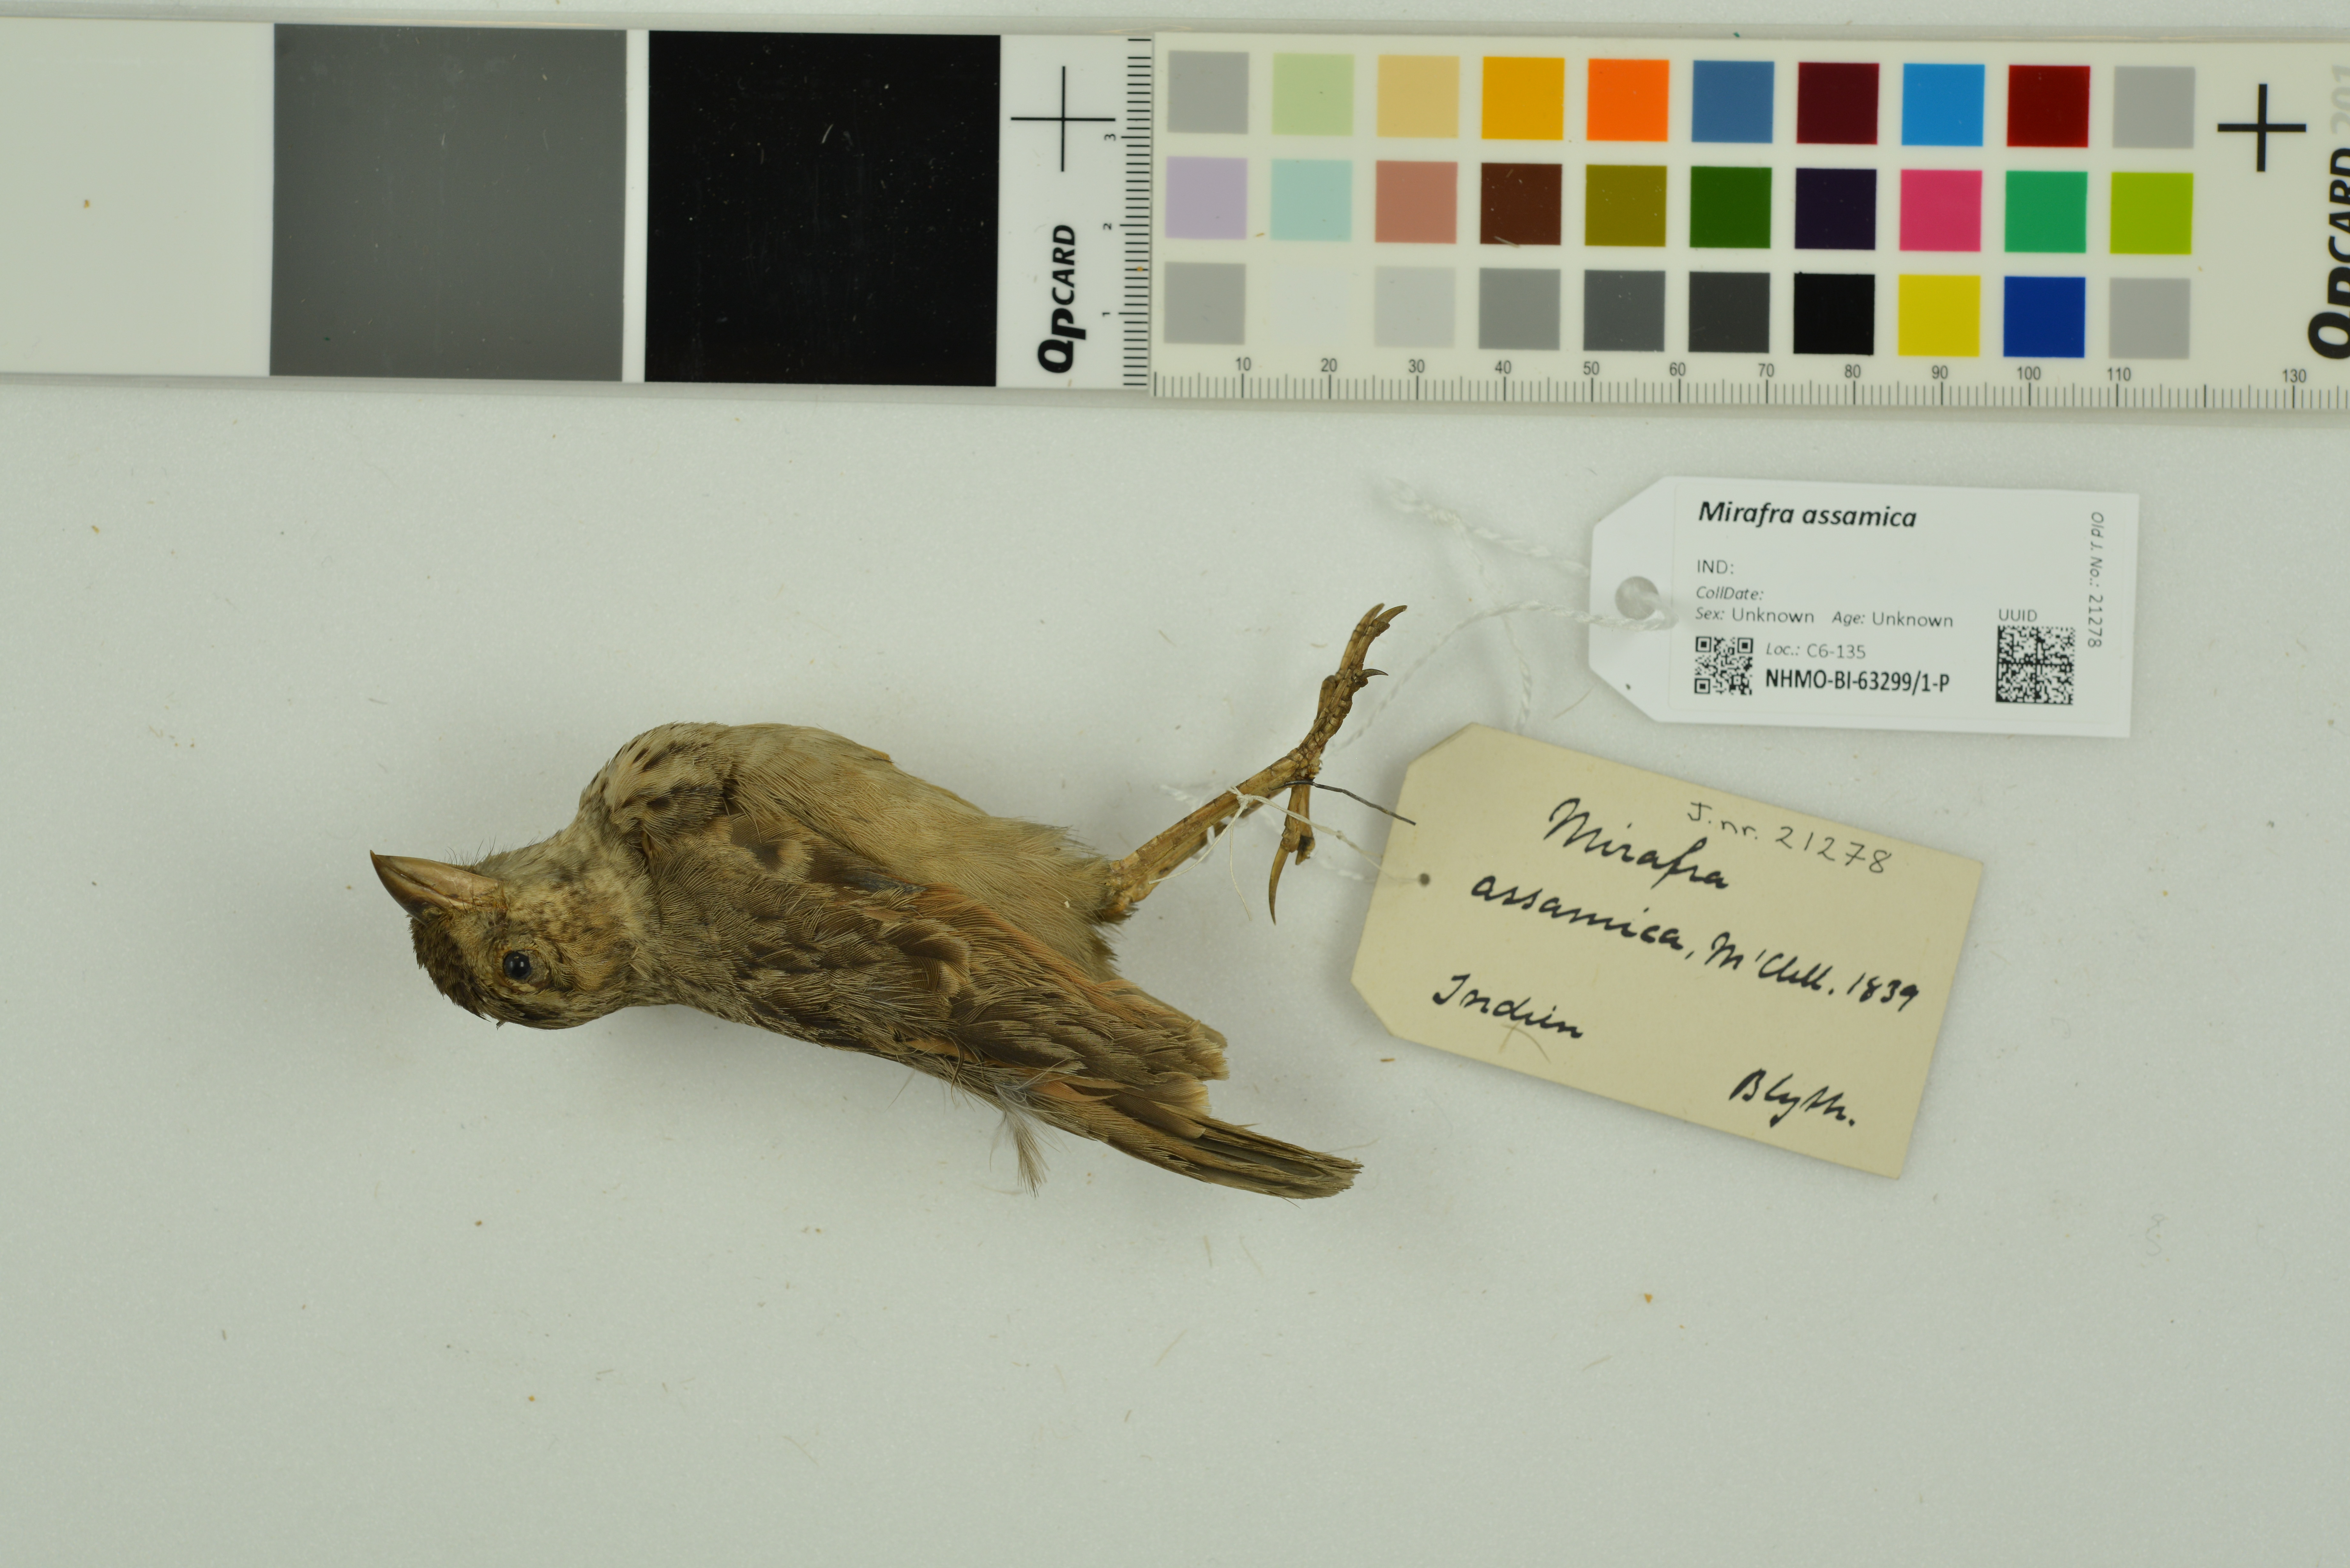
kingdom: Animalia
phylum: Chordata
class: Aves
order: Passeriformes
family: Alaudidae
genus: Mirafra
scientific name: Mirafra assamica
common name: Bengal bush lark
